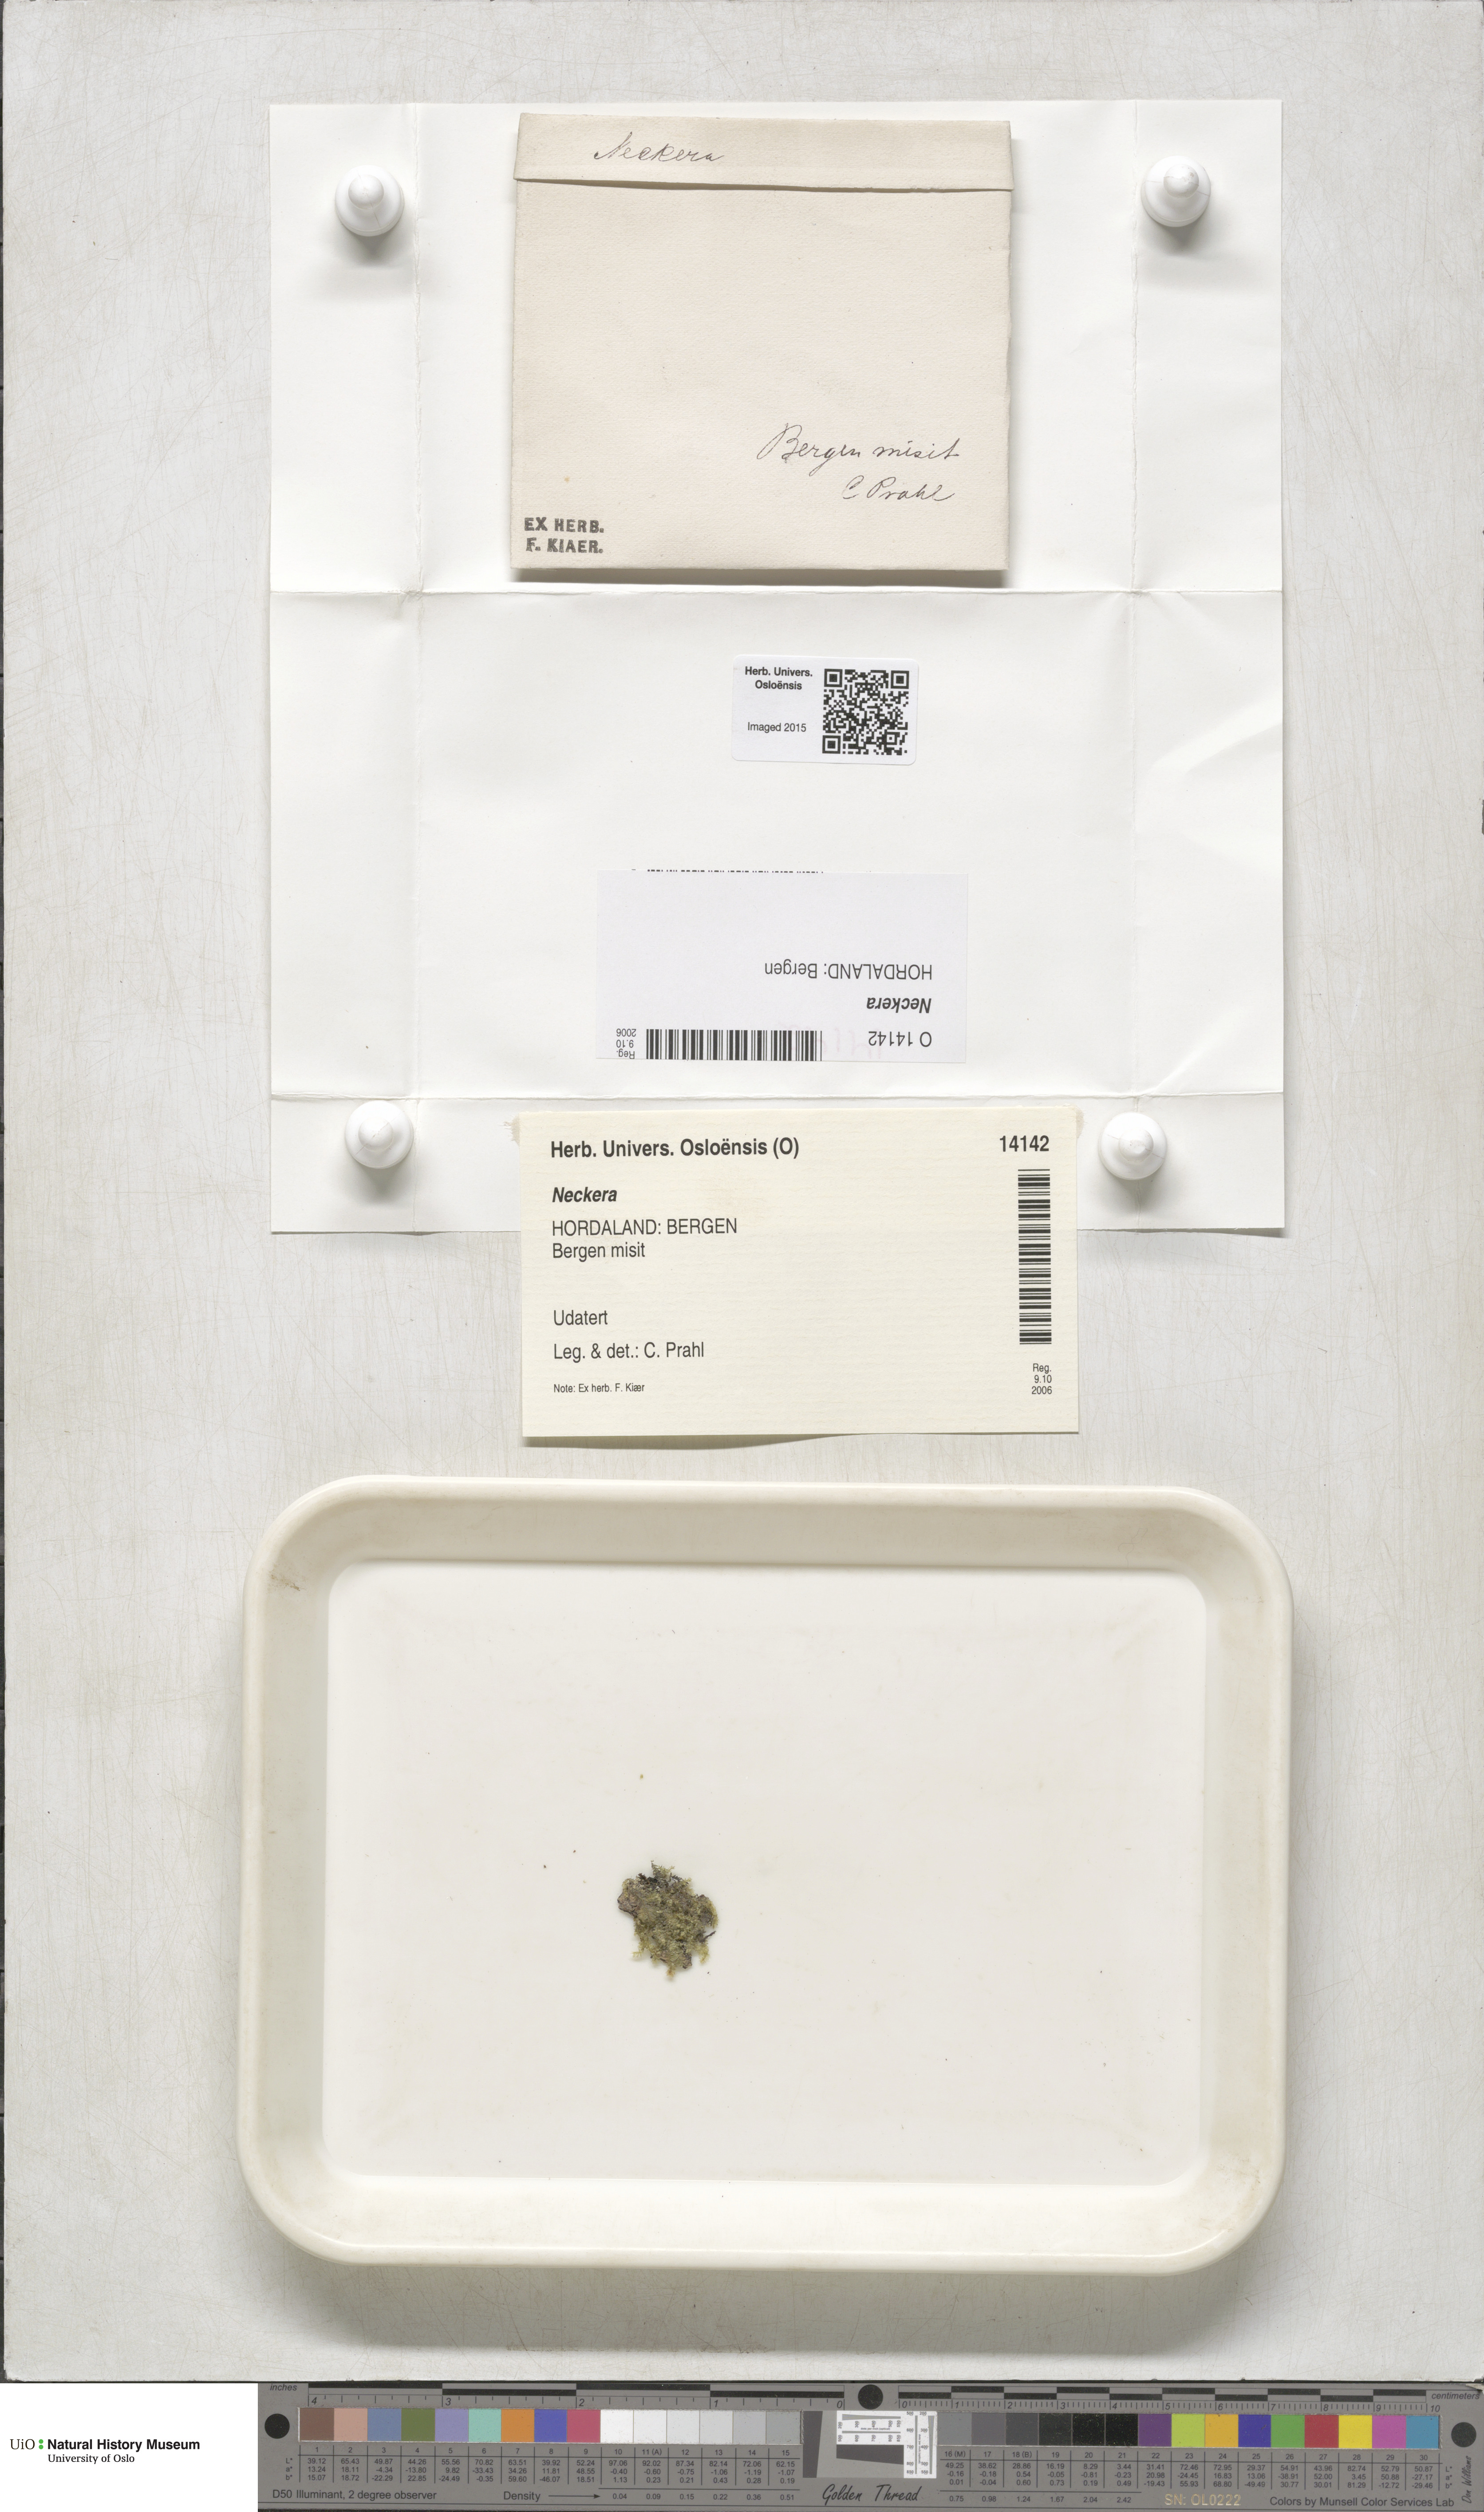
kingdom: Plantae
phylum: Bryophyta
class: Bryopsida
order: Hypnales
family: Neckeraceae
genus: Neckera
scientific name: Neckera
